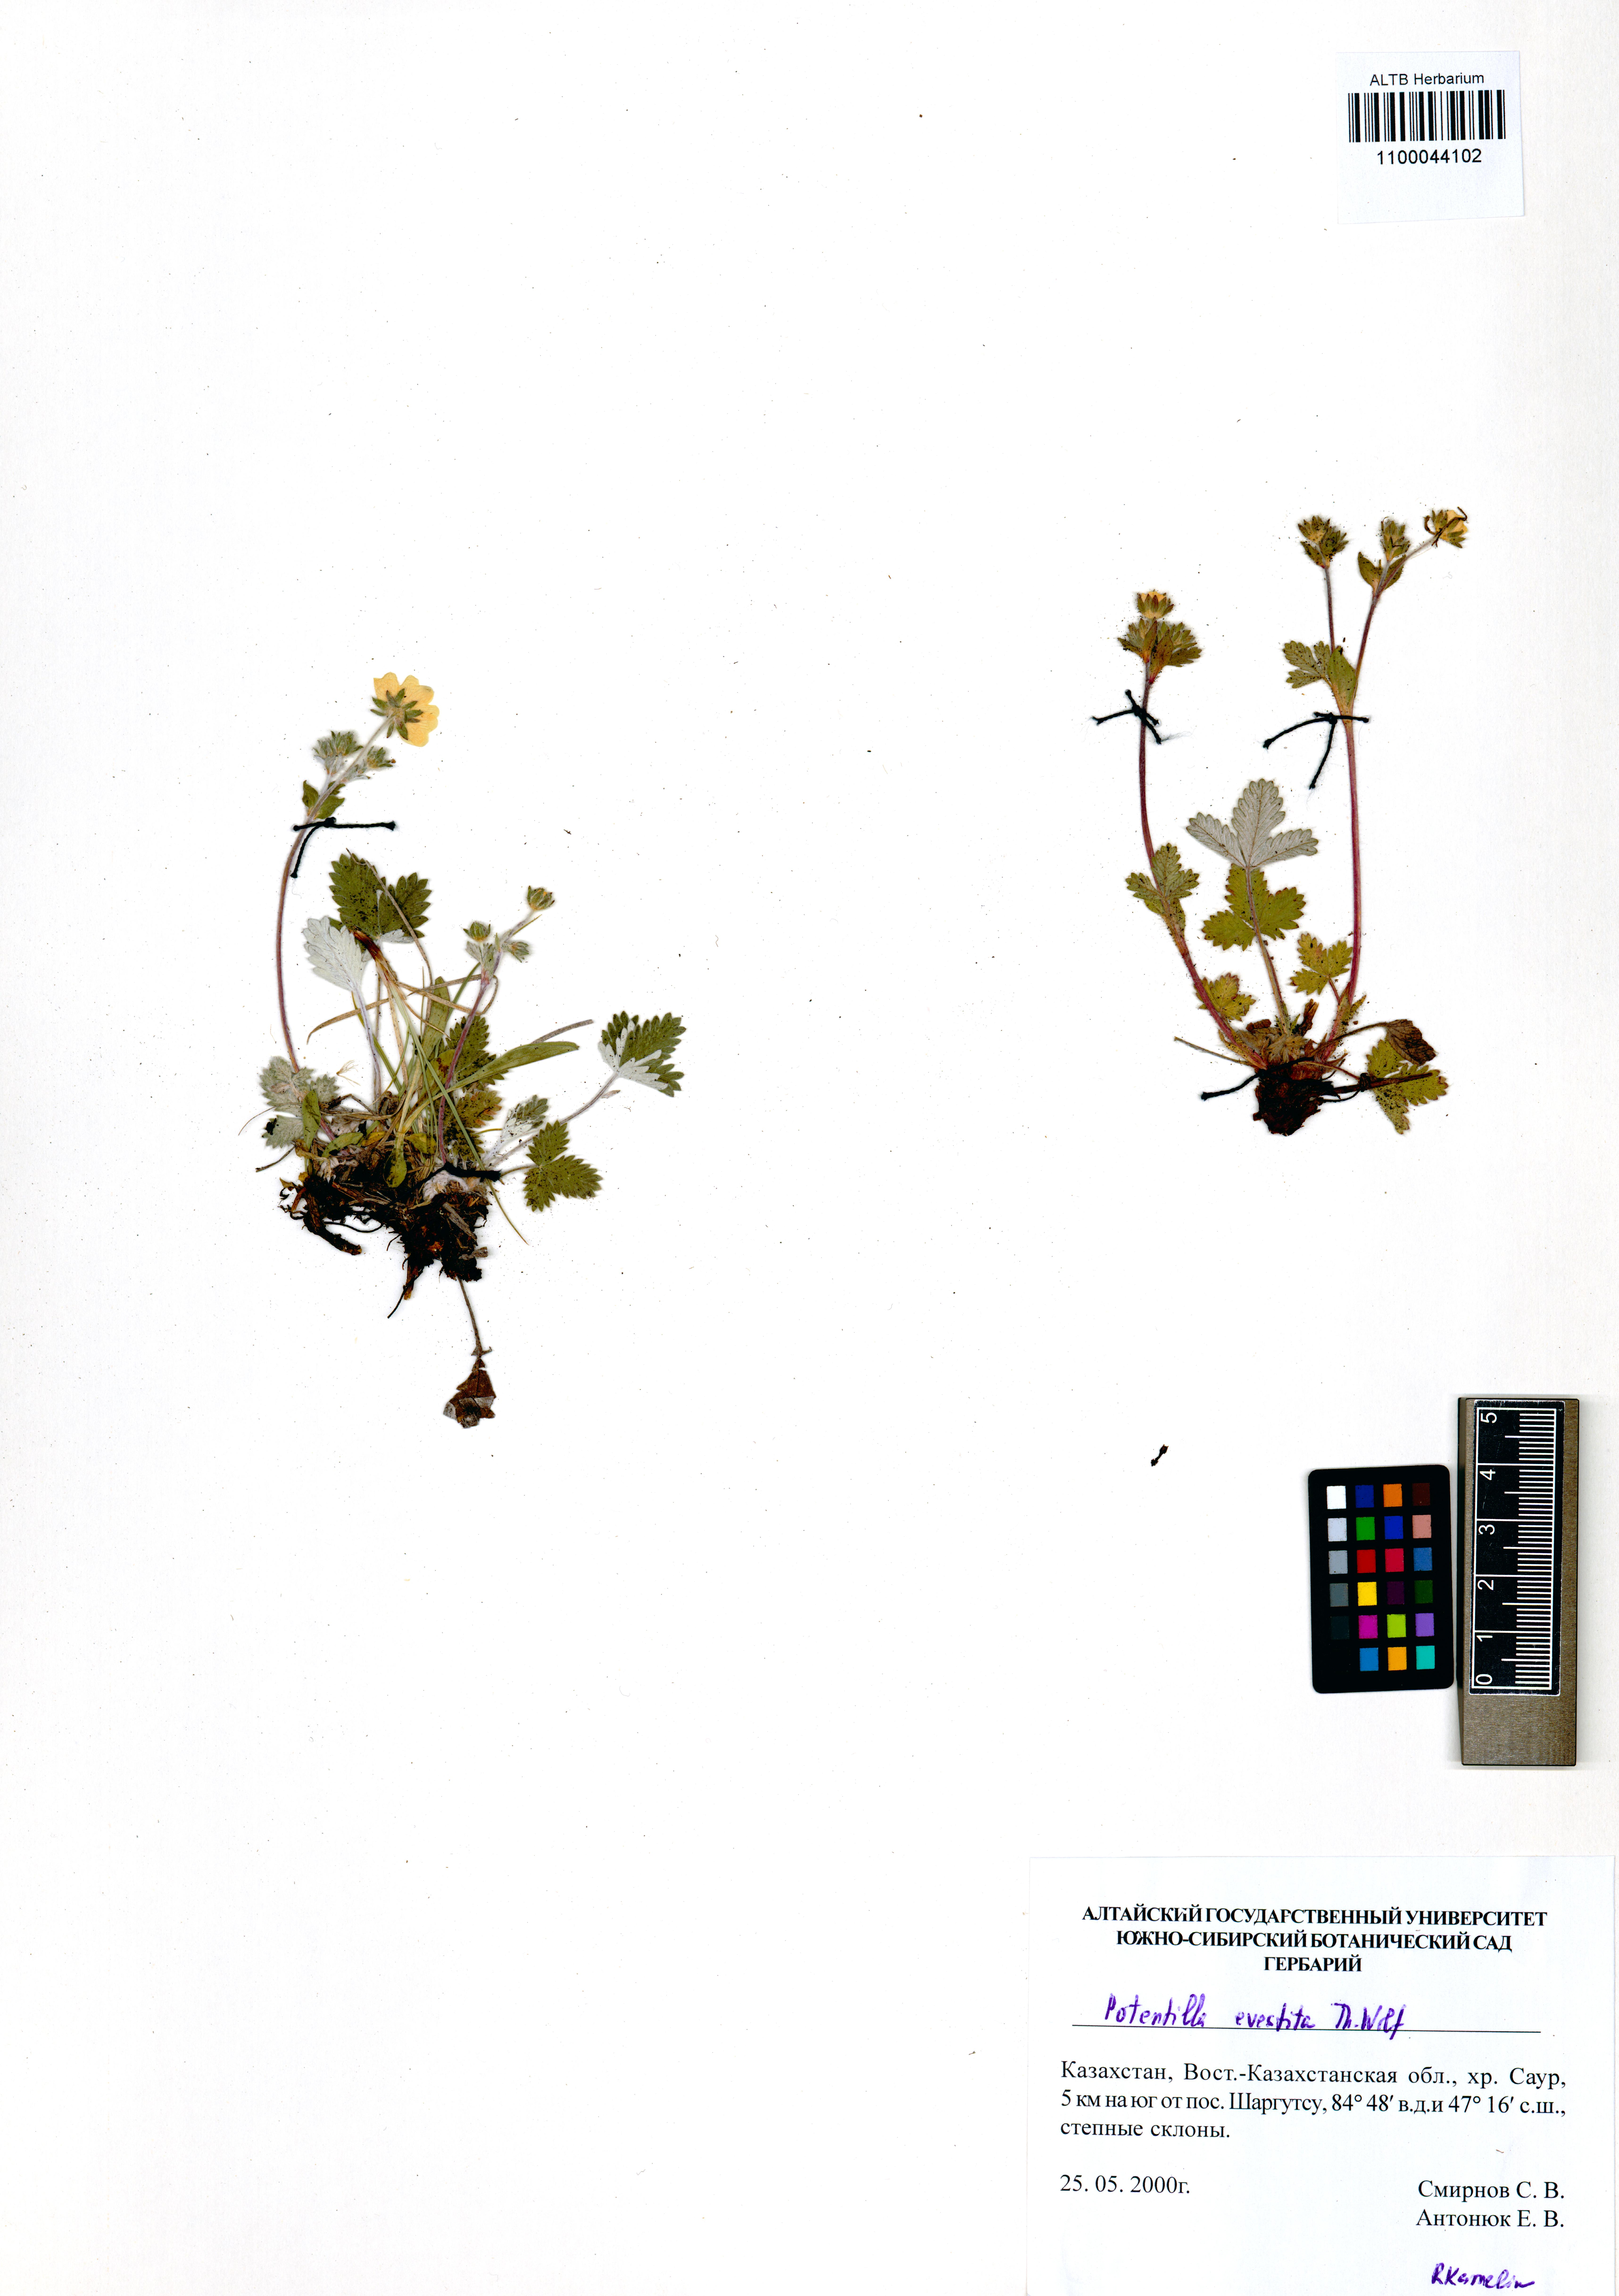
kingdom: Plantae
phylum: Tracheophyta
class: Magnoliopsida
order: Rosales
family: Rosaceae
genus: Potentilla
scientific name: Potentilla evestita
